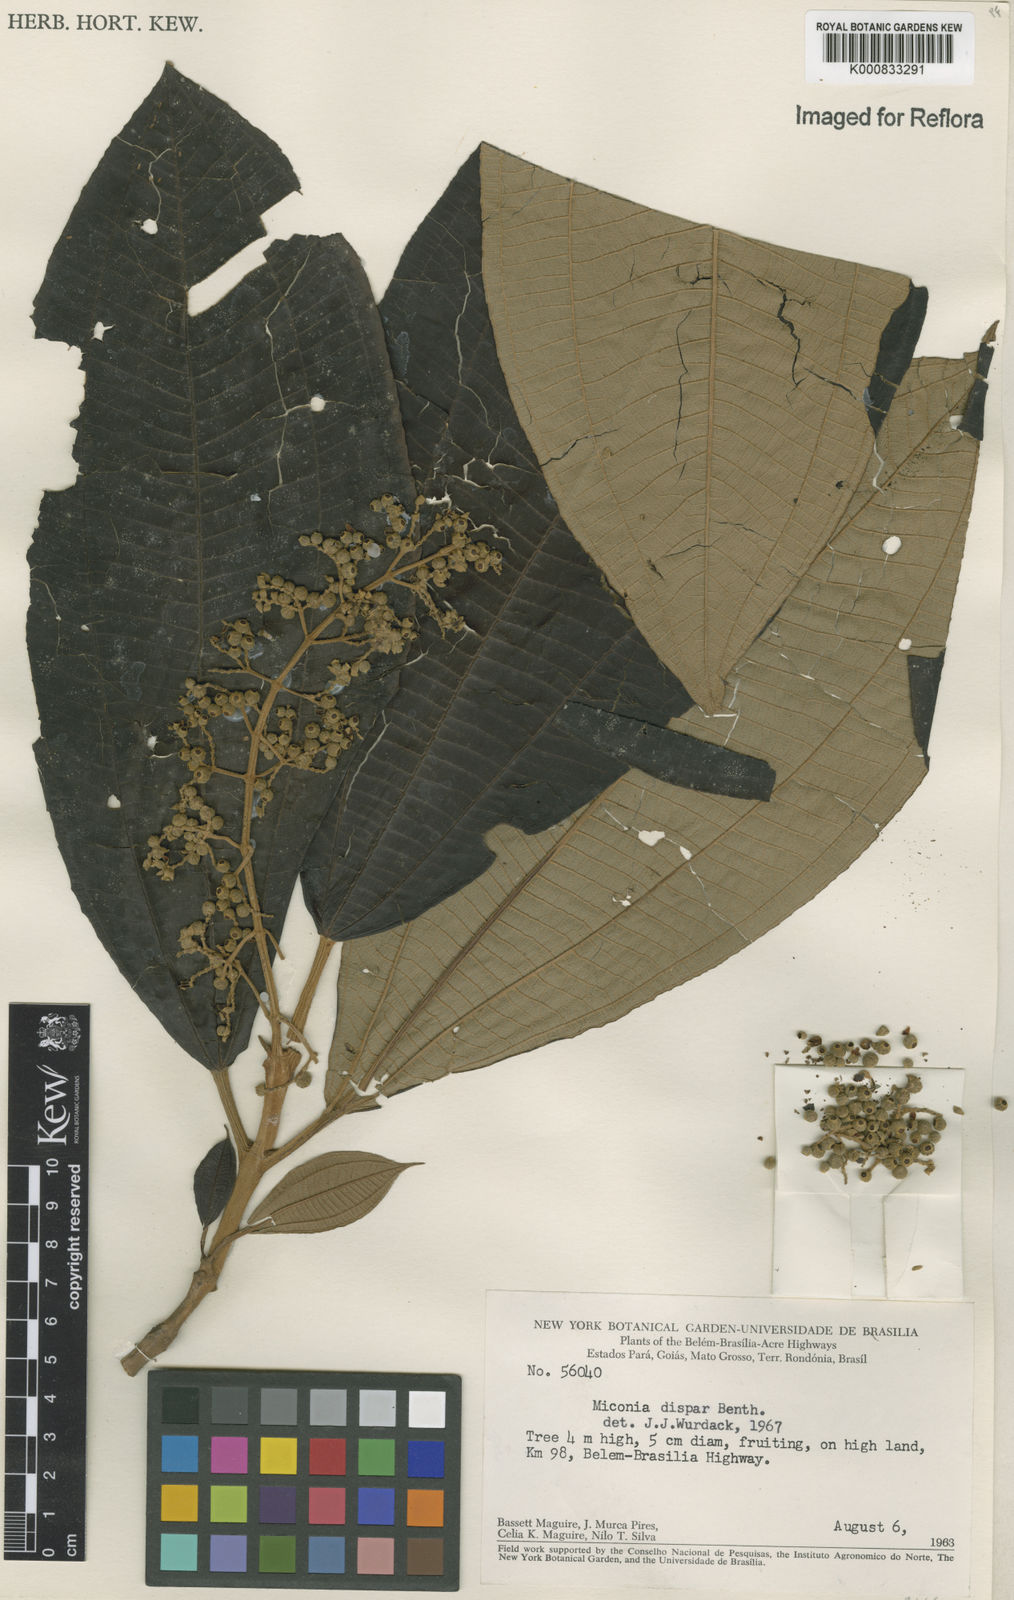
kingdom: Plantae
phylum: Tracheophyta
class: Magnoliopsida
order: Myrtales
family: Melastomataceae
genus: Miconia
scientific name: Miconia dispar
